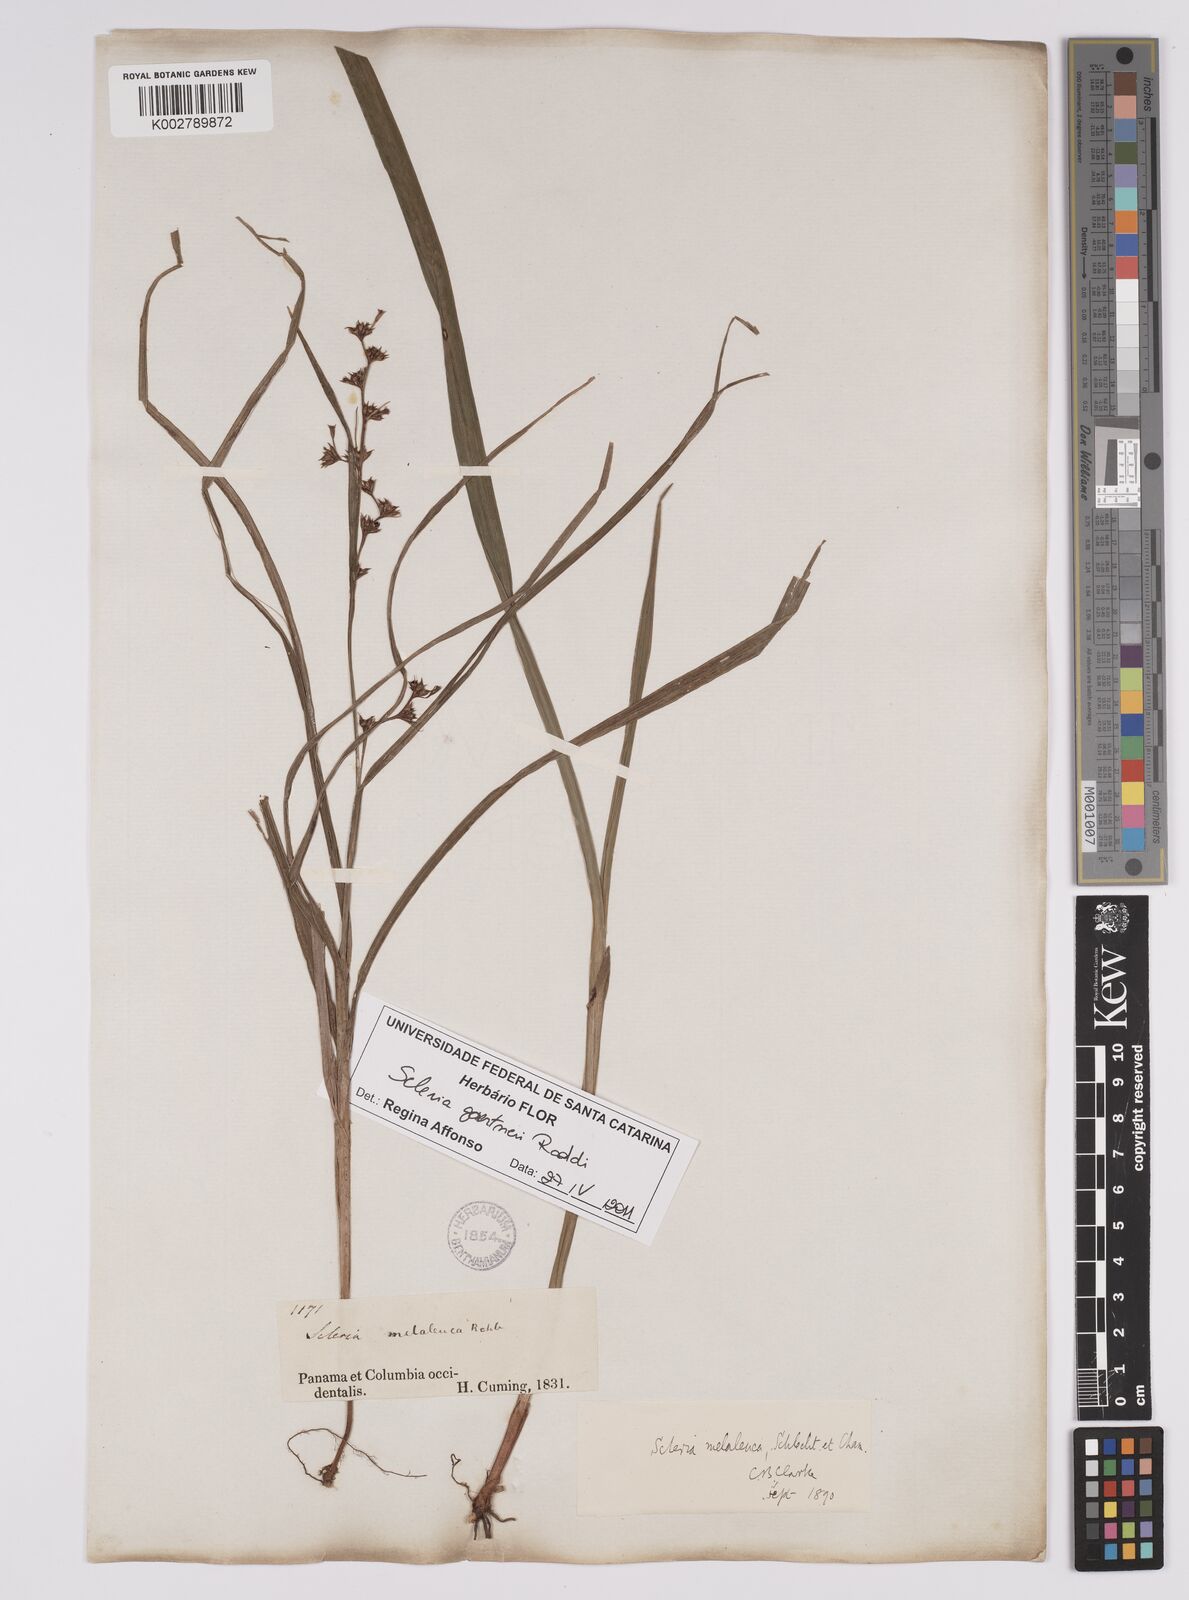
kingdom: Plantae
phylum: Tracheophyta
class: Liliopsida
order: Poales
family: Cyperaceae
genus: Scleria
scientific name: Scleria gaertneri
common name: Cortadera blanca
